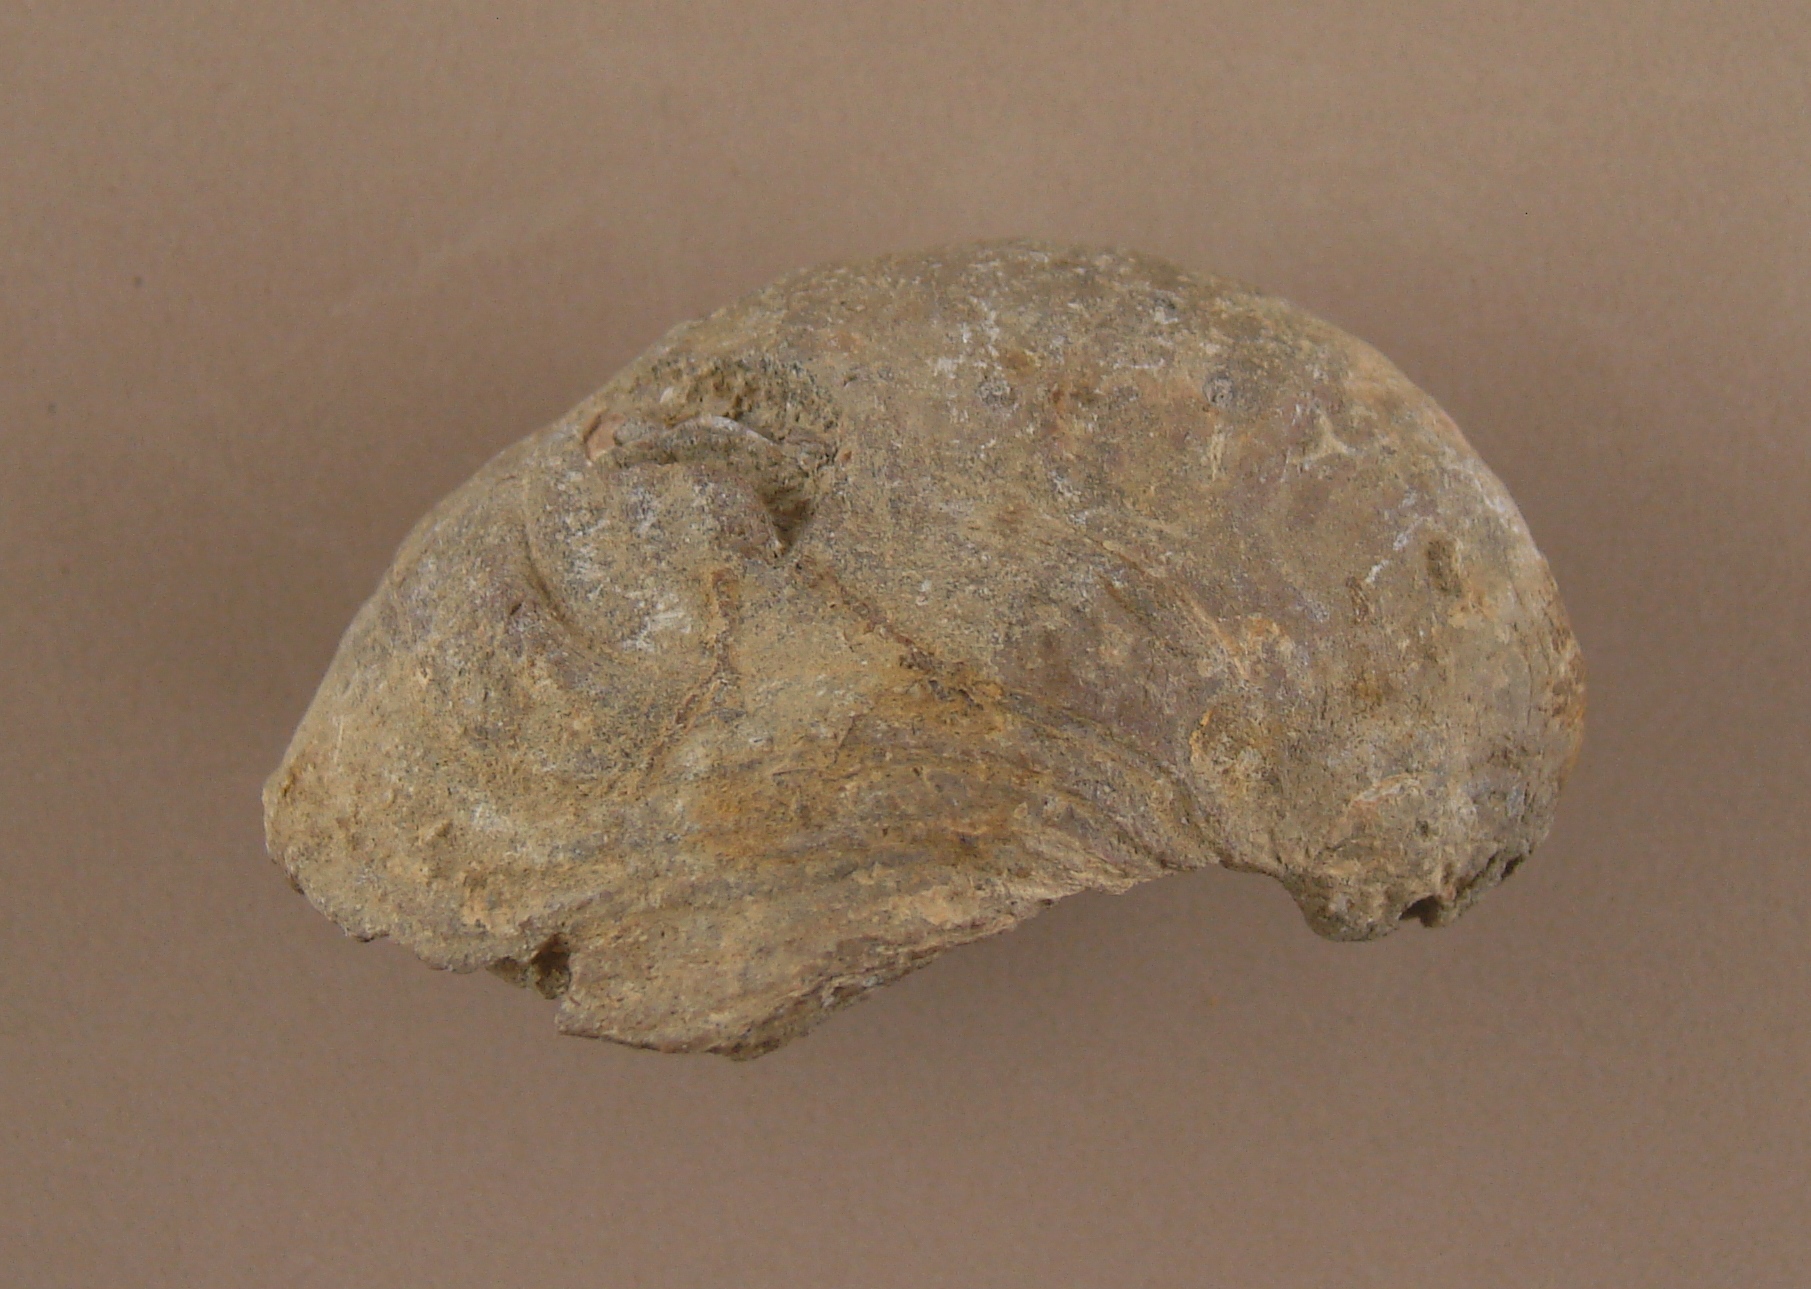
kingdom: Animalia
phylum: Mollusca
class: Bivalvia
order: Ostreida
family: Gryphaeidae
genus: Gryphaea
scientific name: Gryphaea
